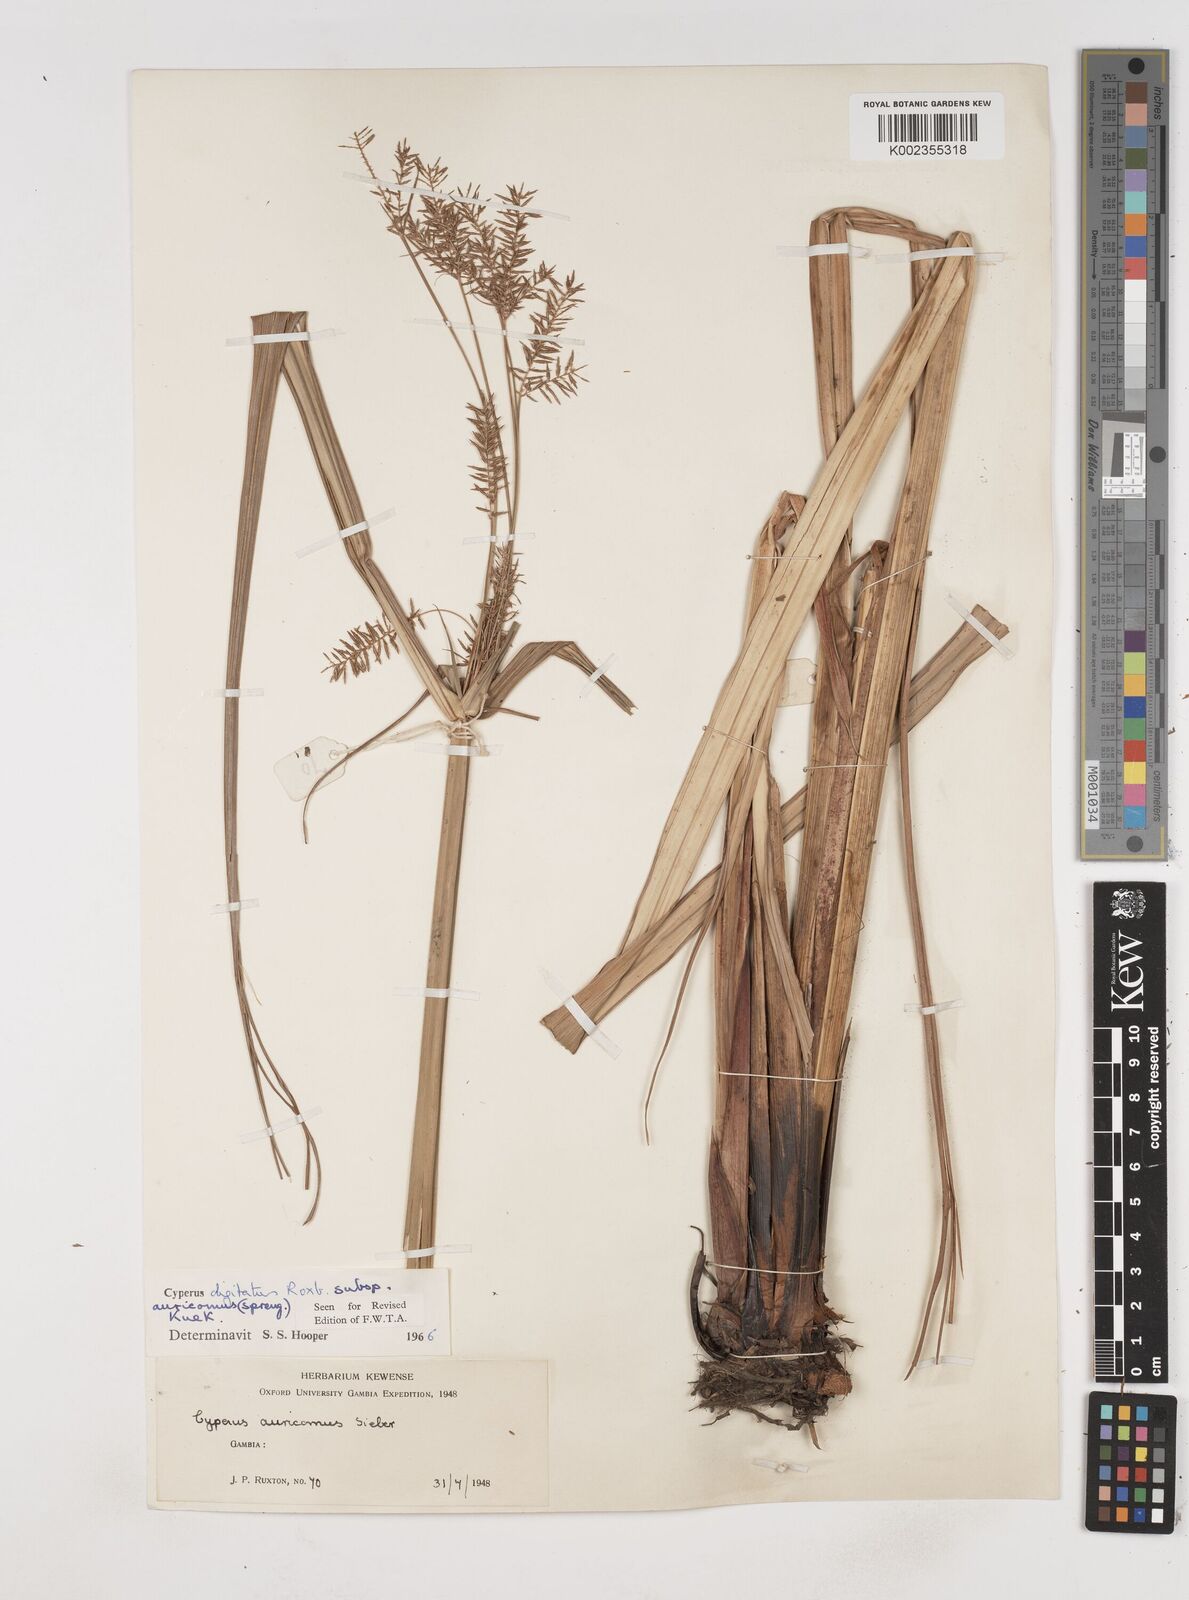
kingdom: Plantae
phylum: Tracheophyta
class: Liliopsida
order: Poales
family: Cyperaceae
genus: Cyperus
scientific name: Cyperus digitatus
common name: Finger flatsedge
